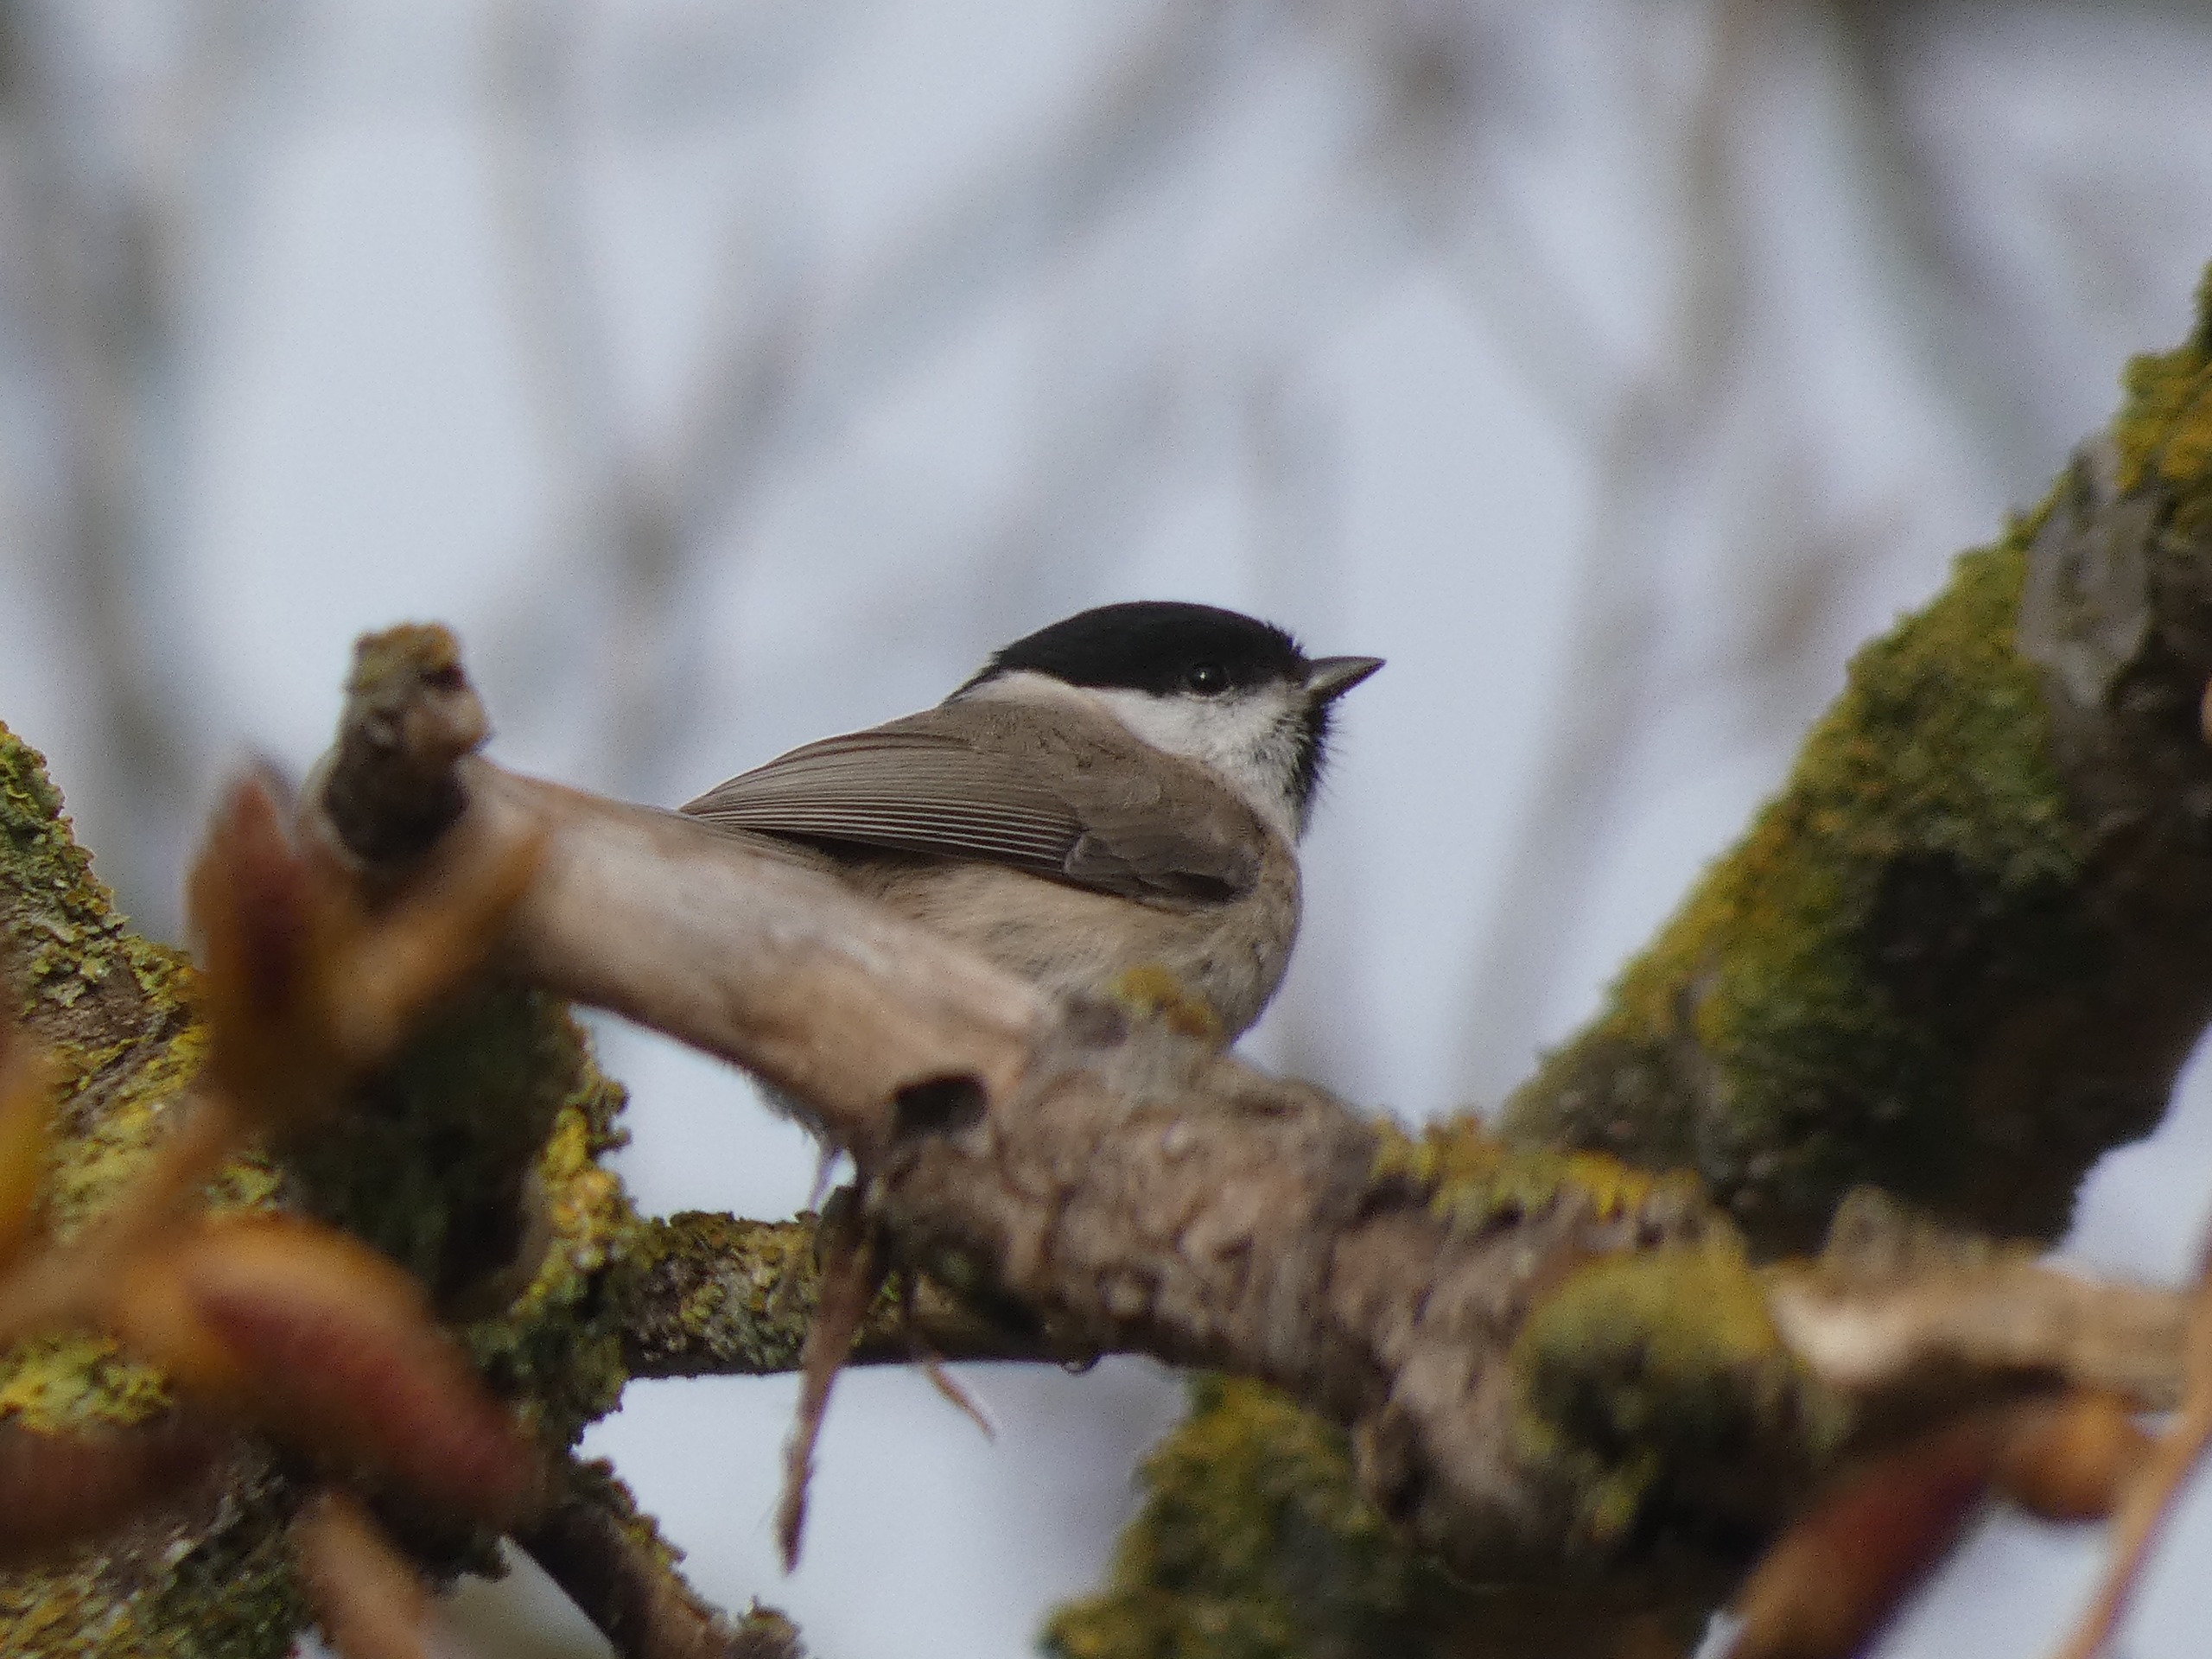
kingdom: Animalia
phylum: Chordata
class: Aves
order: Passeriformes
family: Paridae
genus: Poecile
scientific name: Poecile palustris
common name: Sumpmejse
